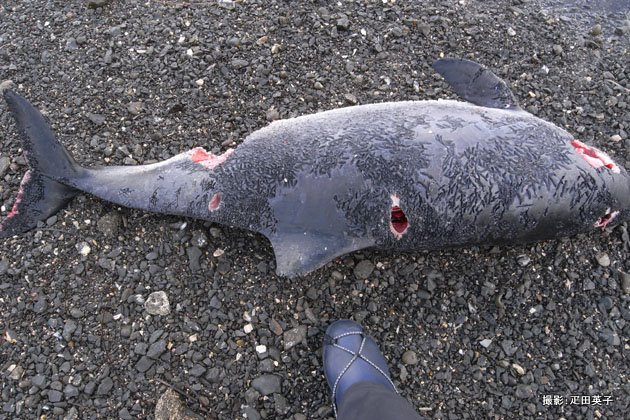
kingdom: Animalia
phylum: Chordata
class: Mammalia
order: Cetacea
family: Phocoenidae
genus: Phocoena
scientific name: Phocoena phocoena
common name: Harbour porpoise
